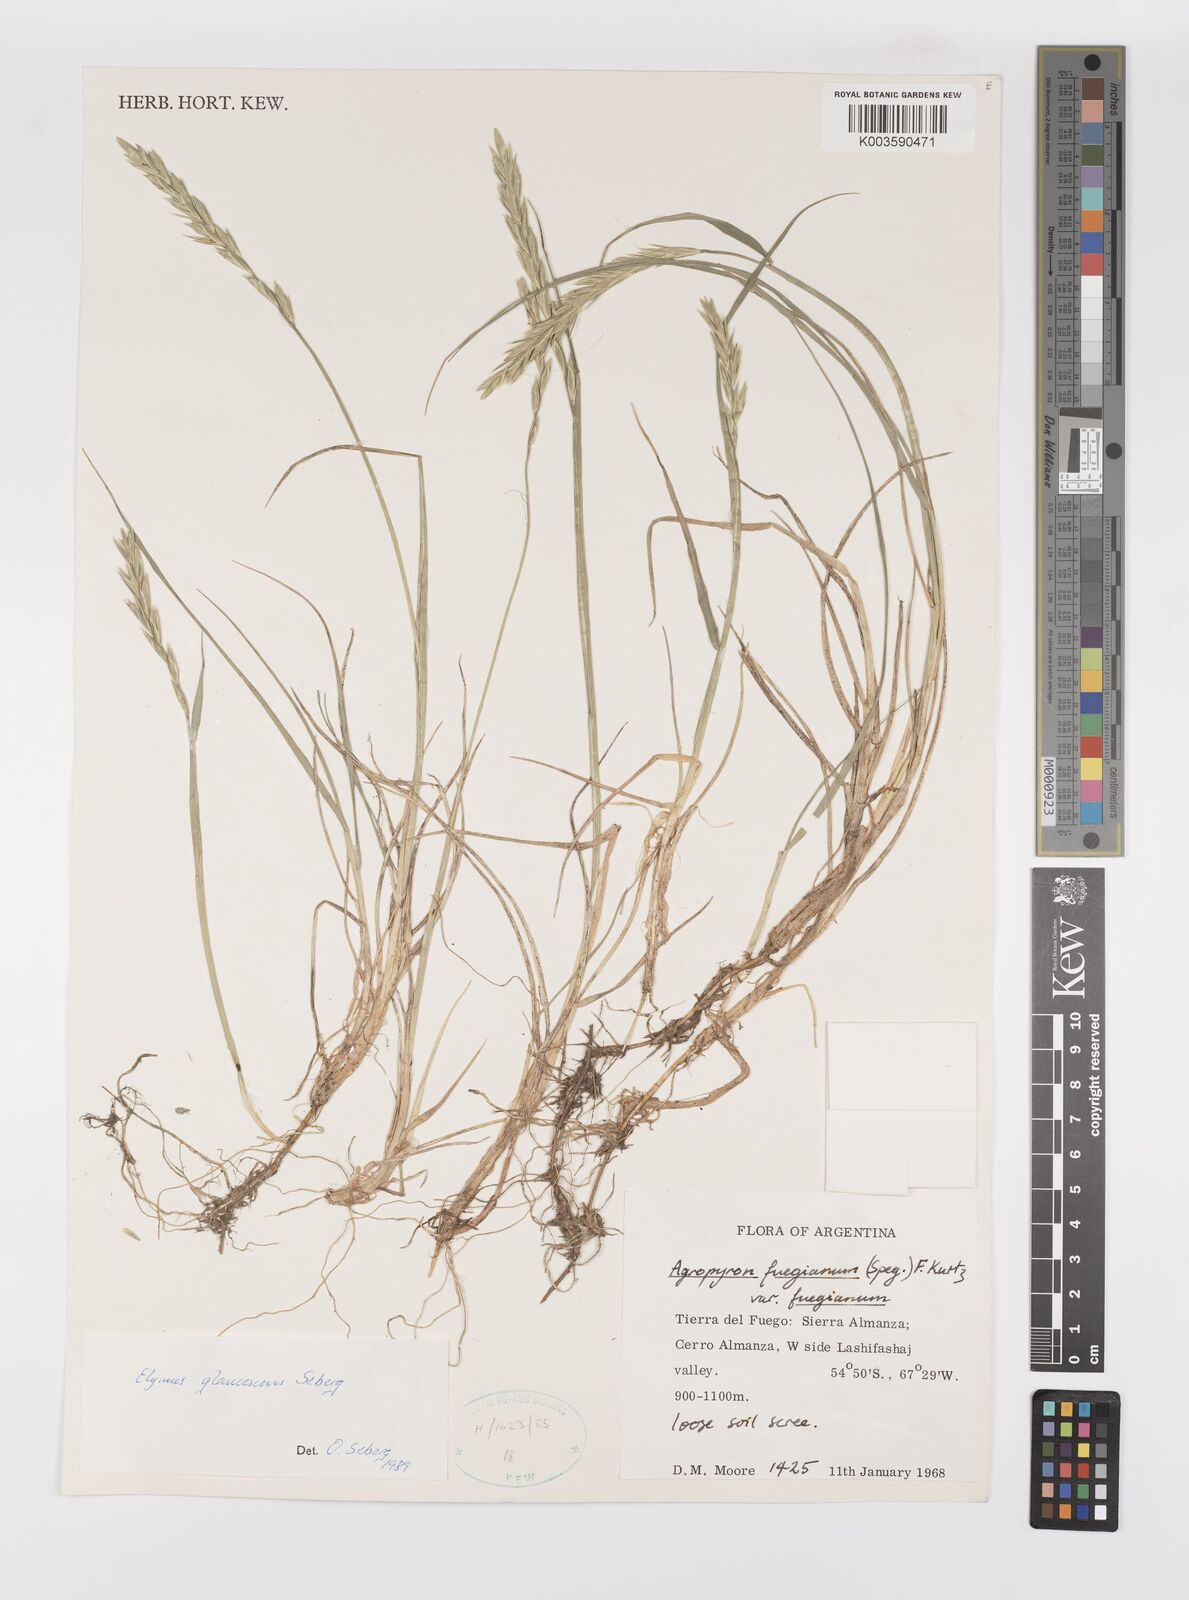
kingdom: Plantae
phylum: Tracheophyta
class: Liliopsida
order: Poales
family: Poaceae
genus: Elymus
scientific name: Elymus magellanicus
